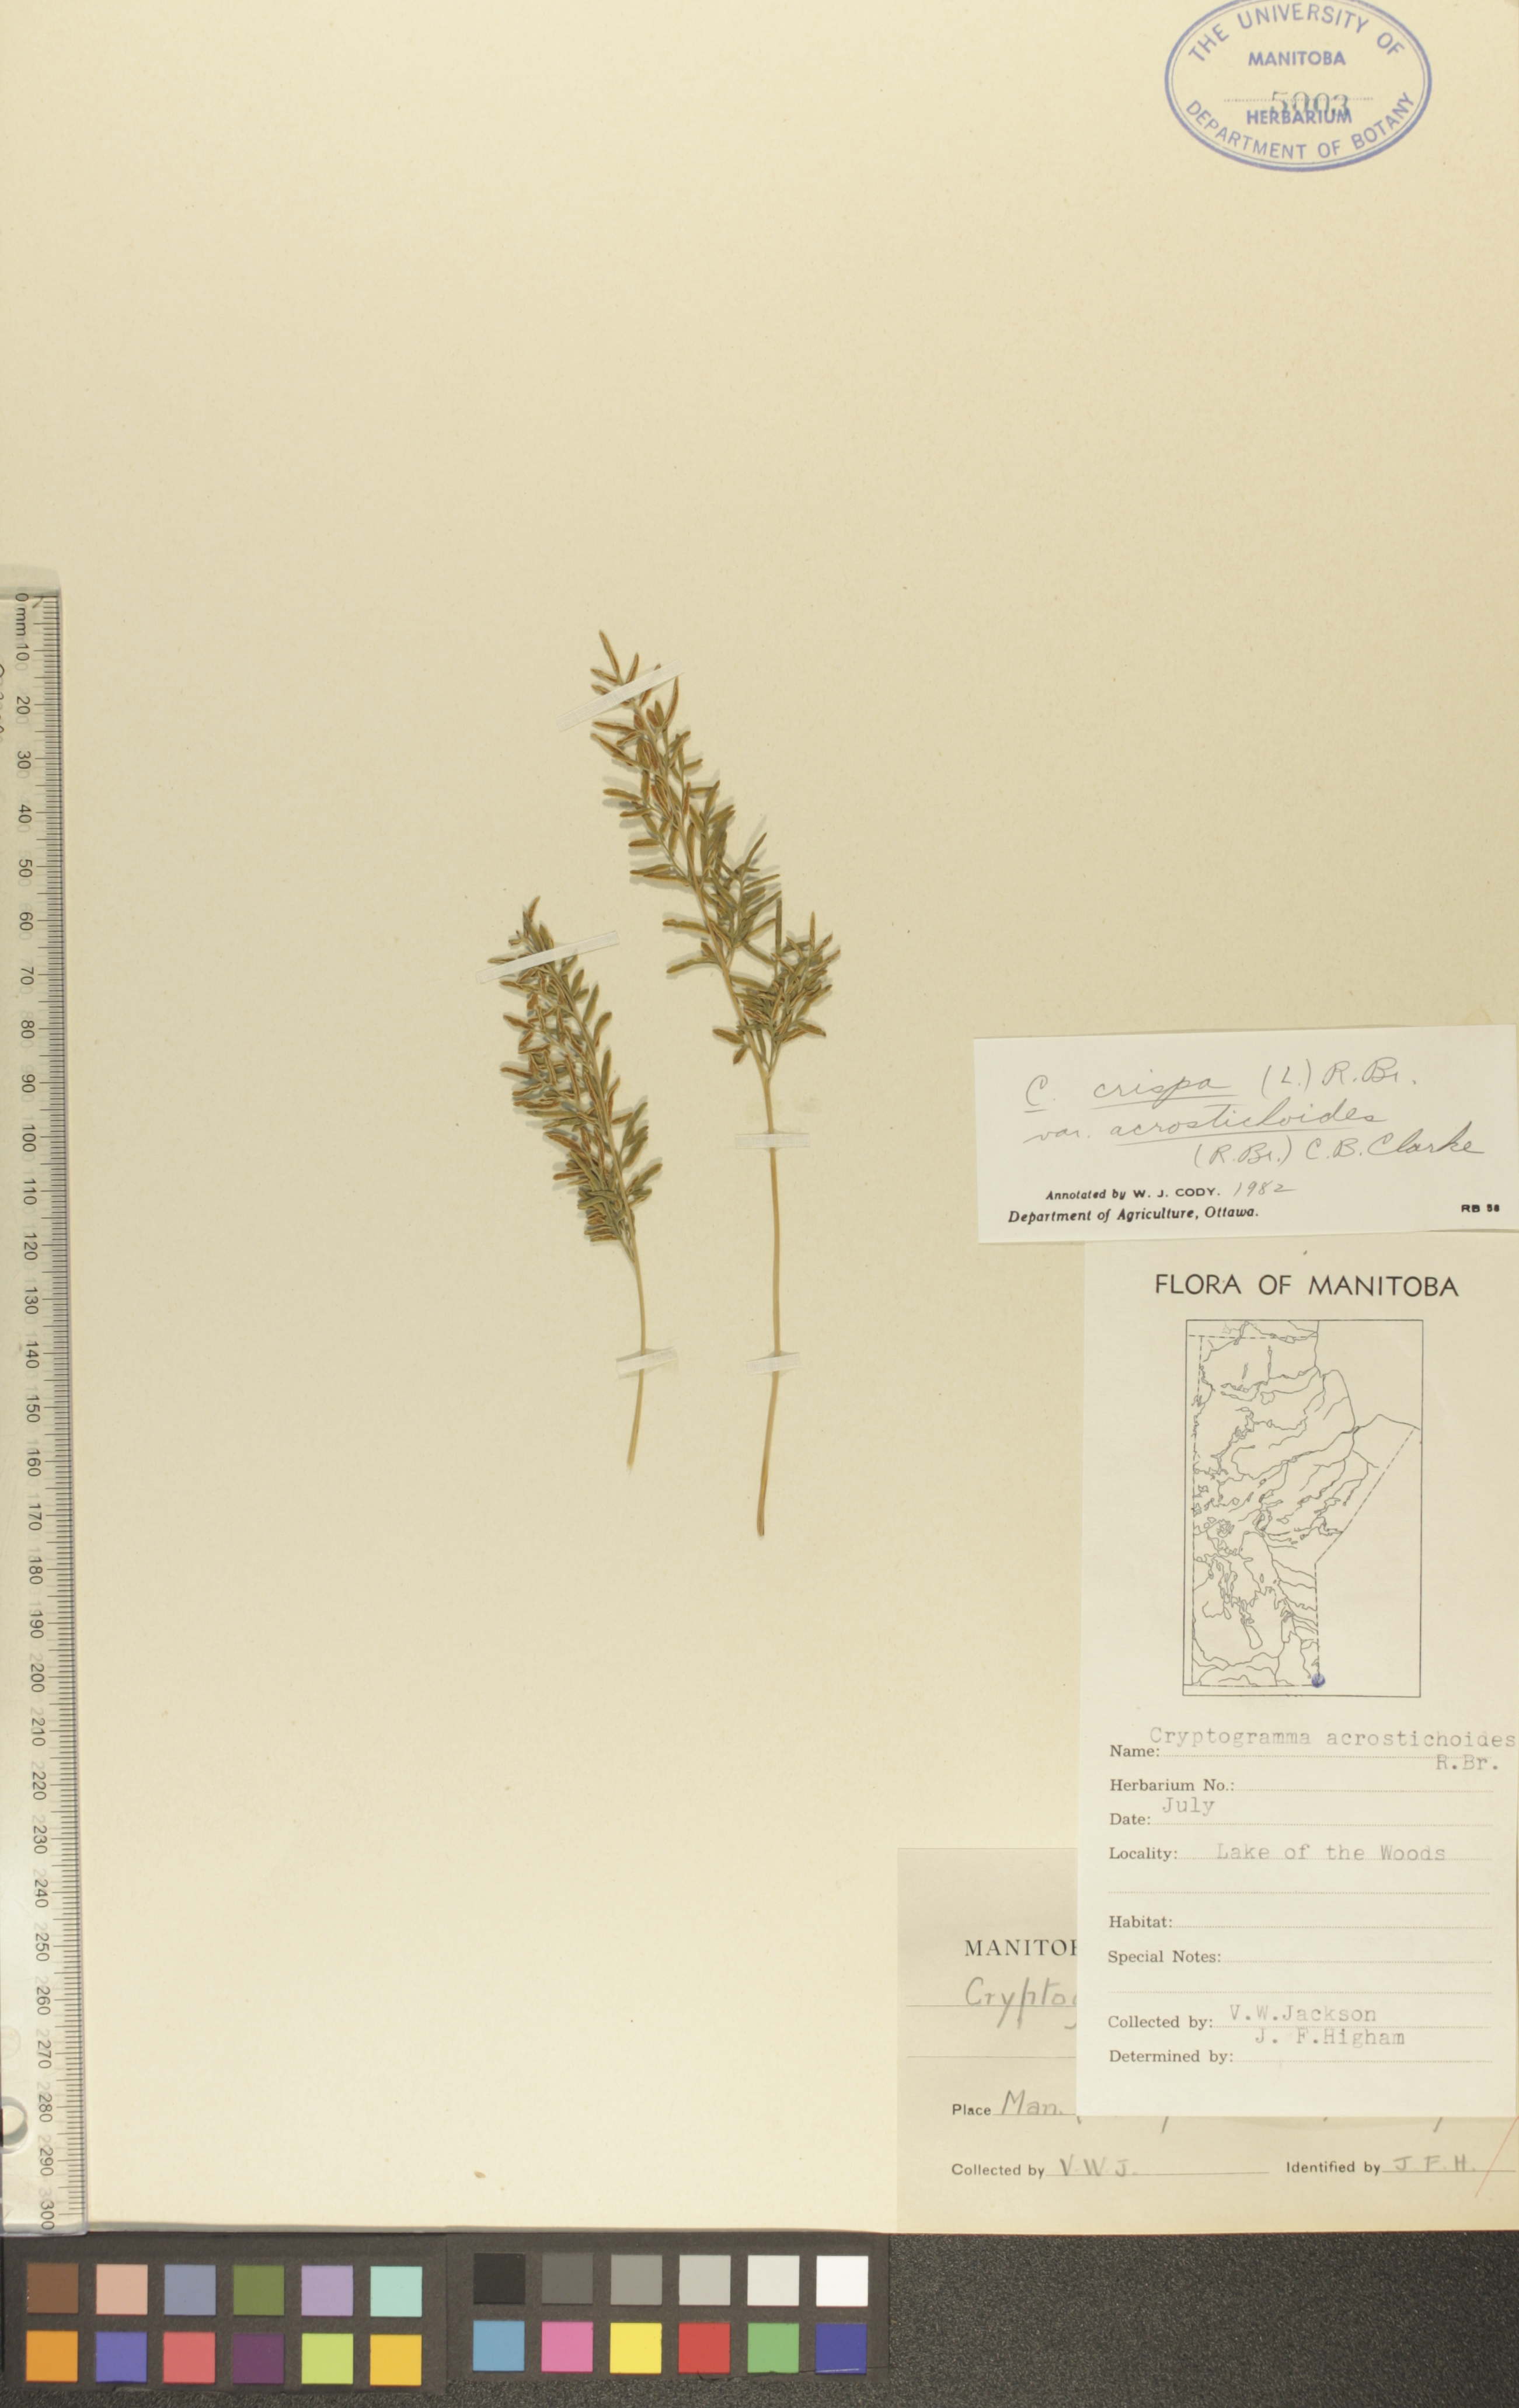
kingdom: Plantae
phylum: Tracheophyta
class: Polypodiopsida
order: Polypodiales
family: Pteridaceae
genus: Cryptogramma
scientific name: Cryptogramma acrostichoides
